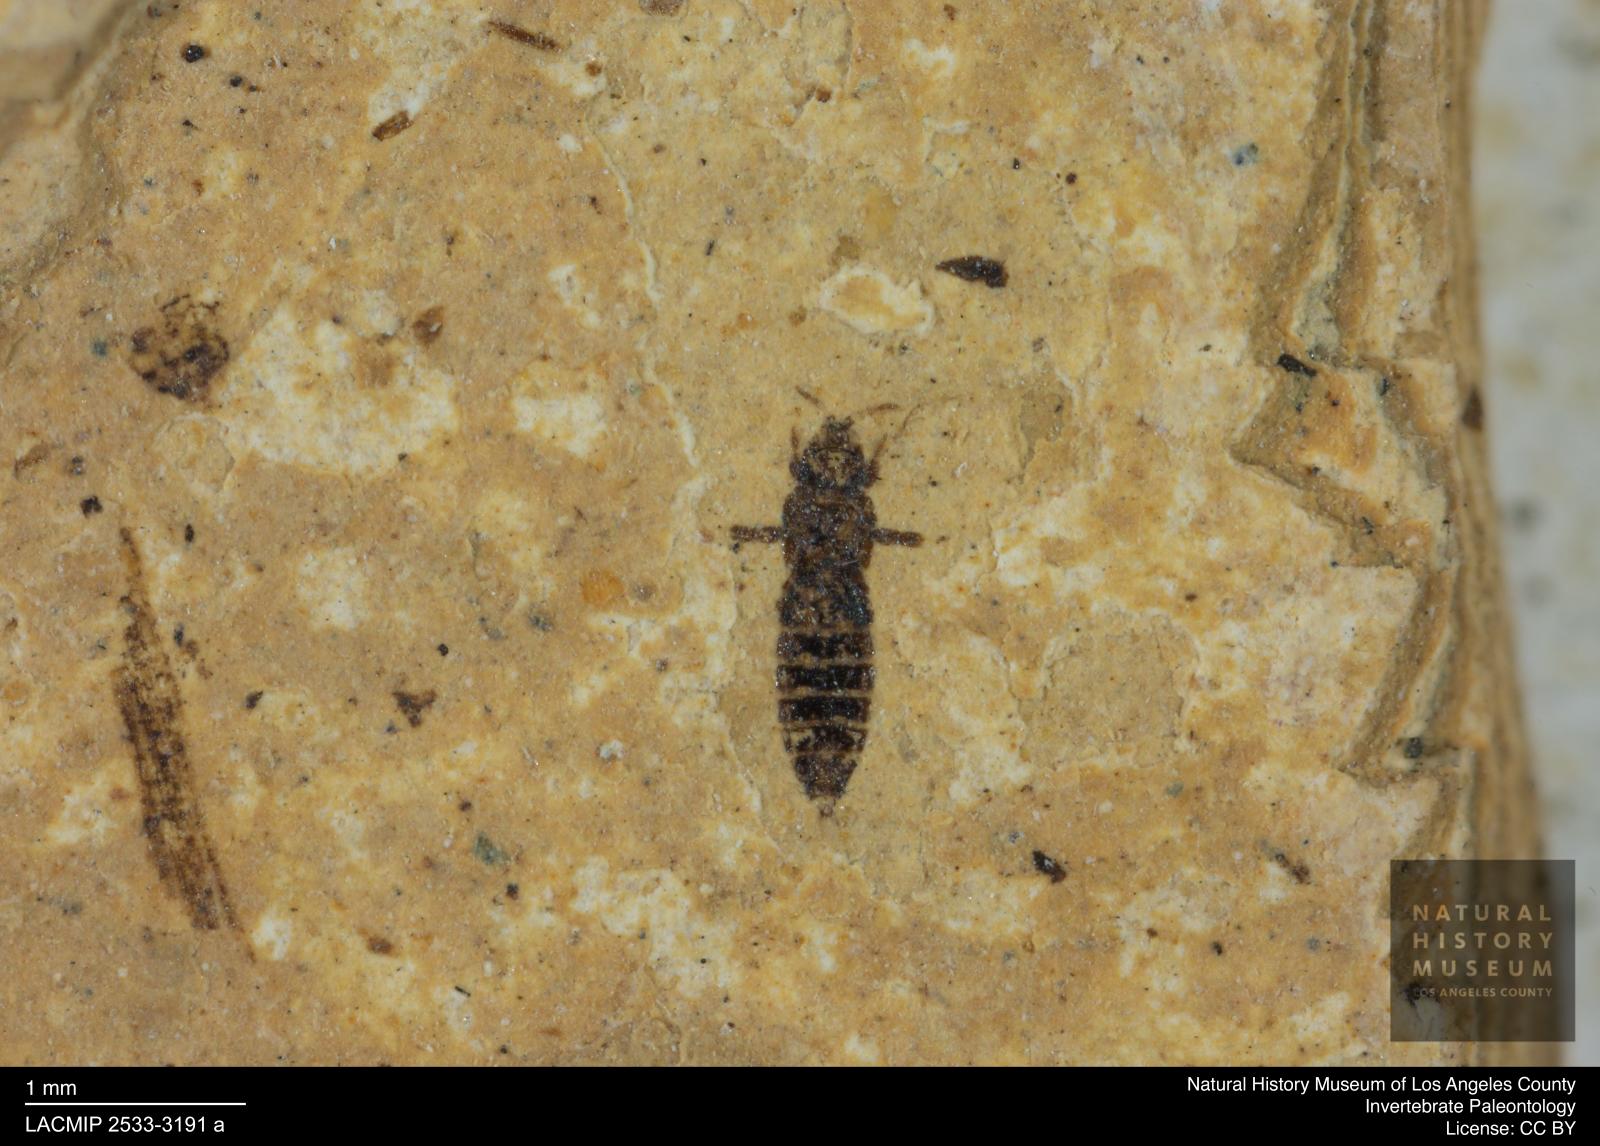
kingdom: Animalia
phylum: Arthropoda
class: Insecta
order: Thysanoptera
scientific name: Thysanoptera
